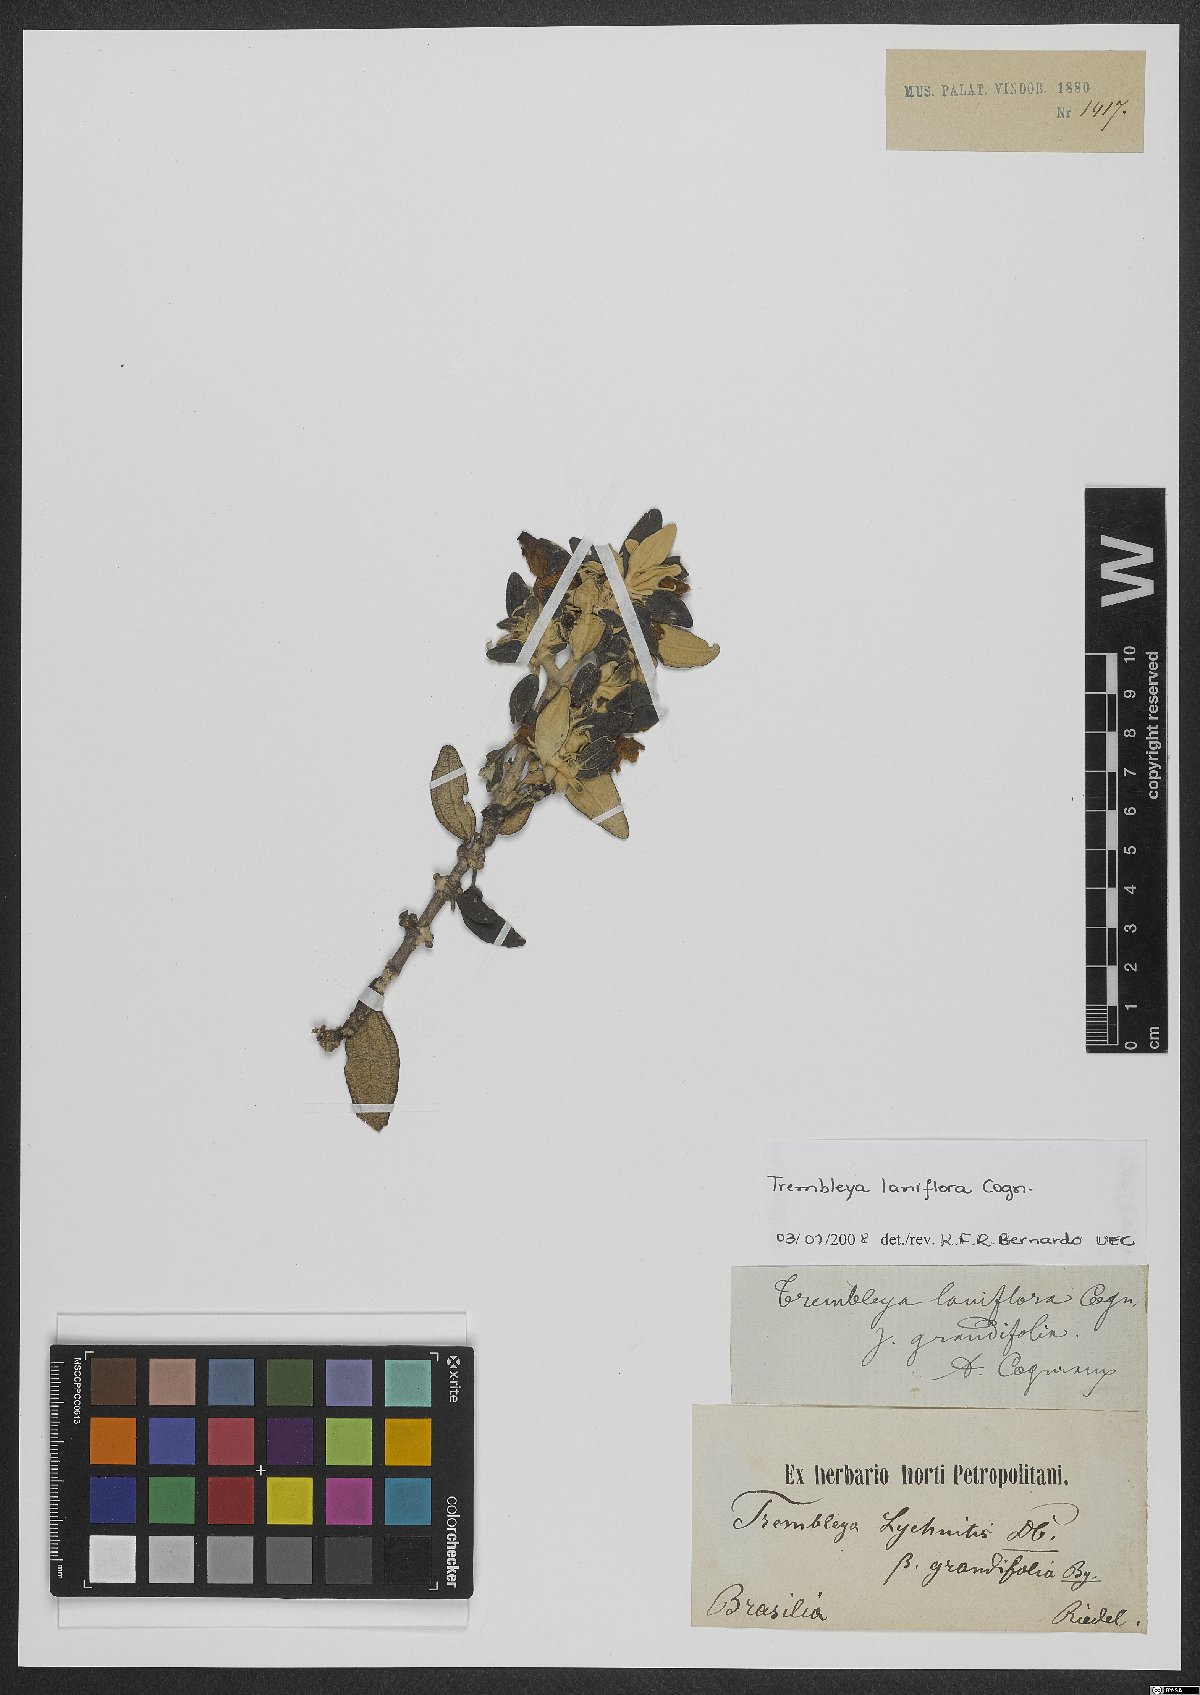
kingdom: Plantae
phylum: Tracheophyta
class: Magnoliopsida
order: Myrtales
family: Melastomataceae
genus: Microlicia
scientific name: Microlicia laniflora
